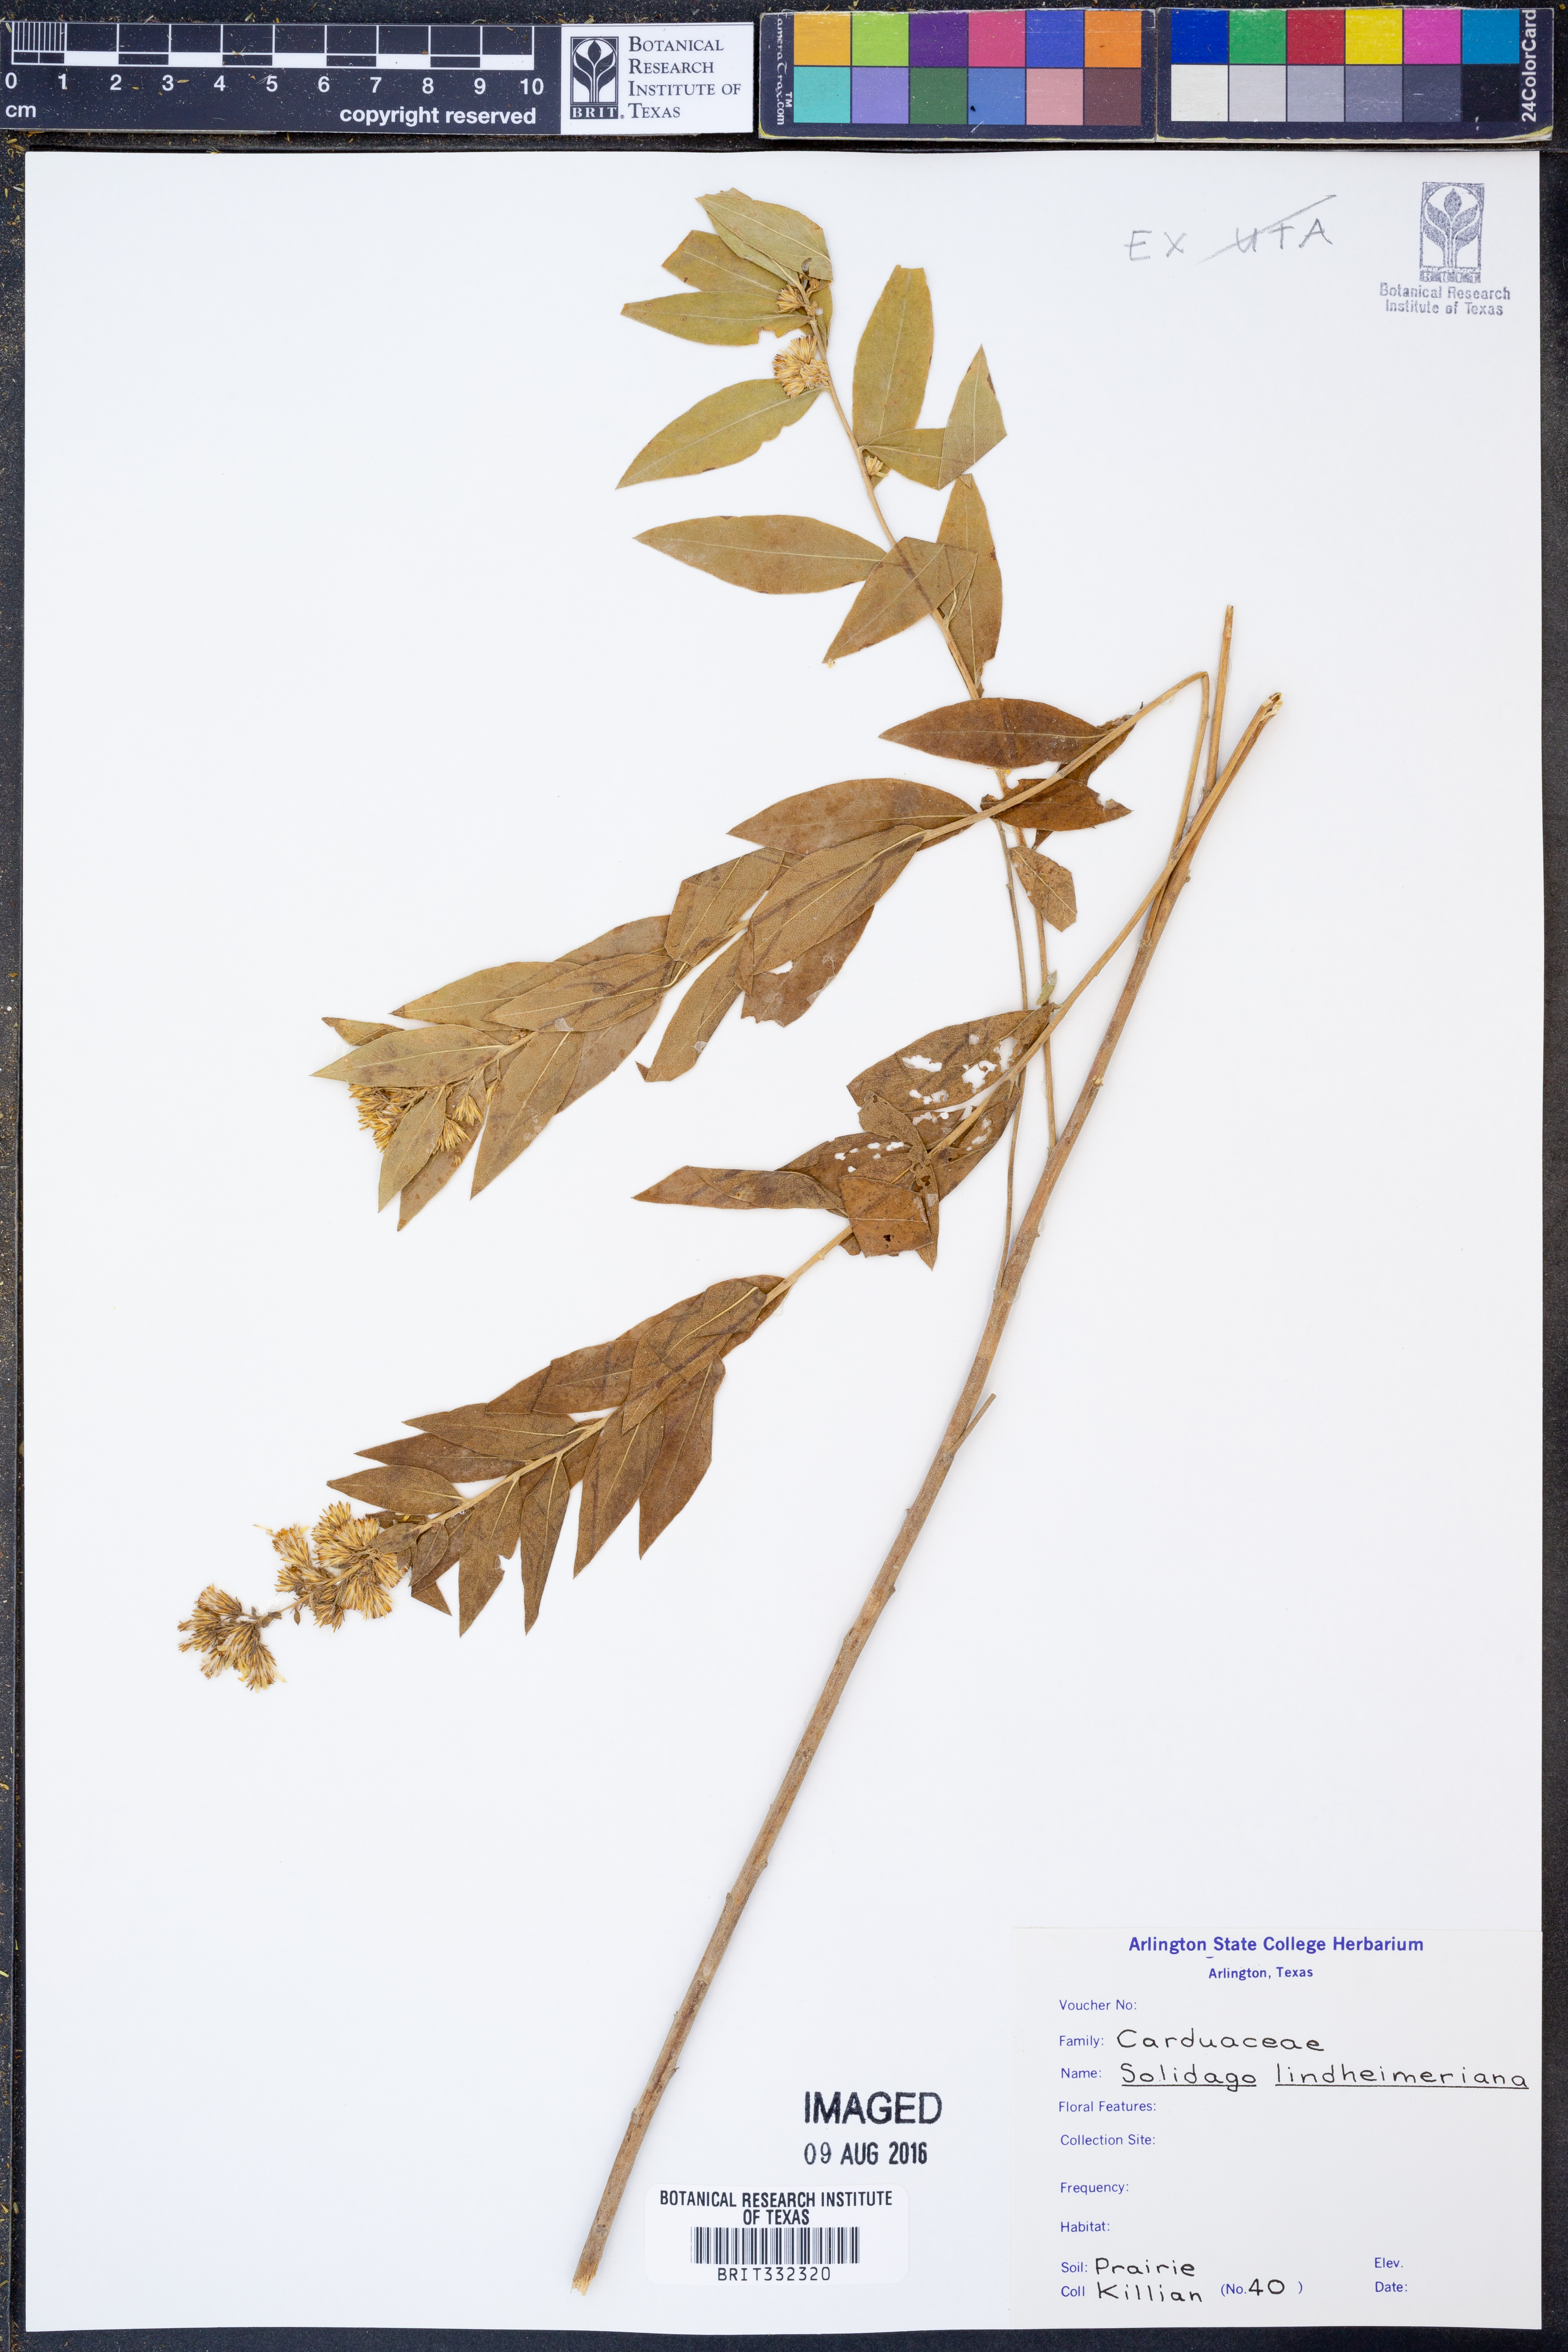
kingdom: Plantae
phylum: Tracheophyta
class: Magnoliopsida
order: Asterales
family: Asteraceae
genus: Solidago
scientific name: Solidago petiolaris
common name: Downy ragged goldenrod
